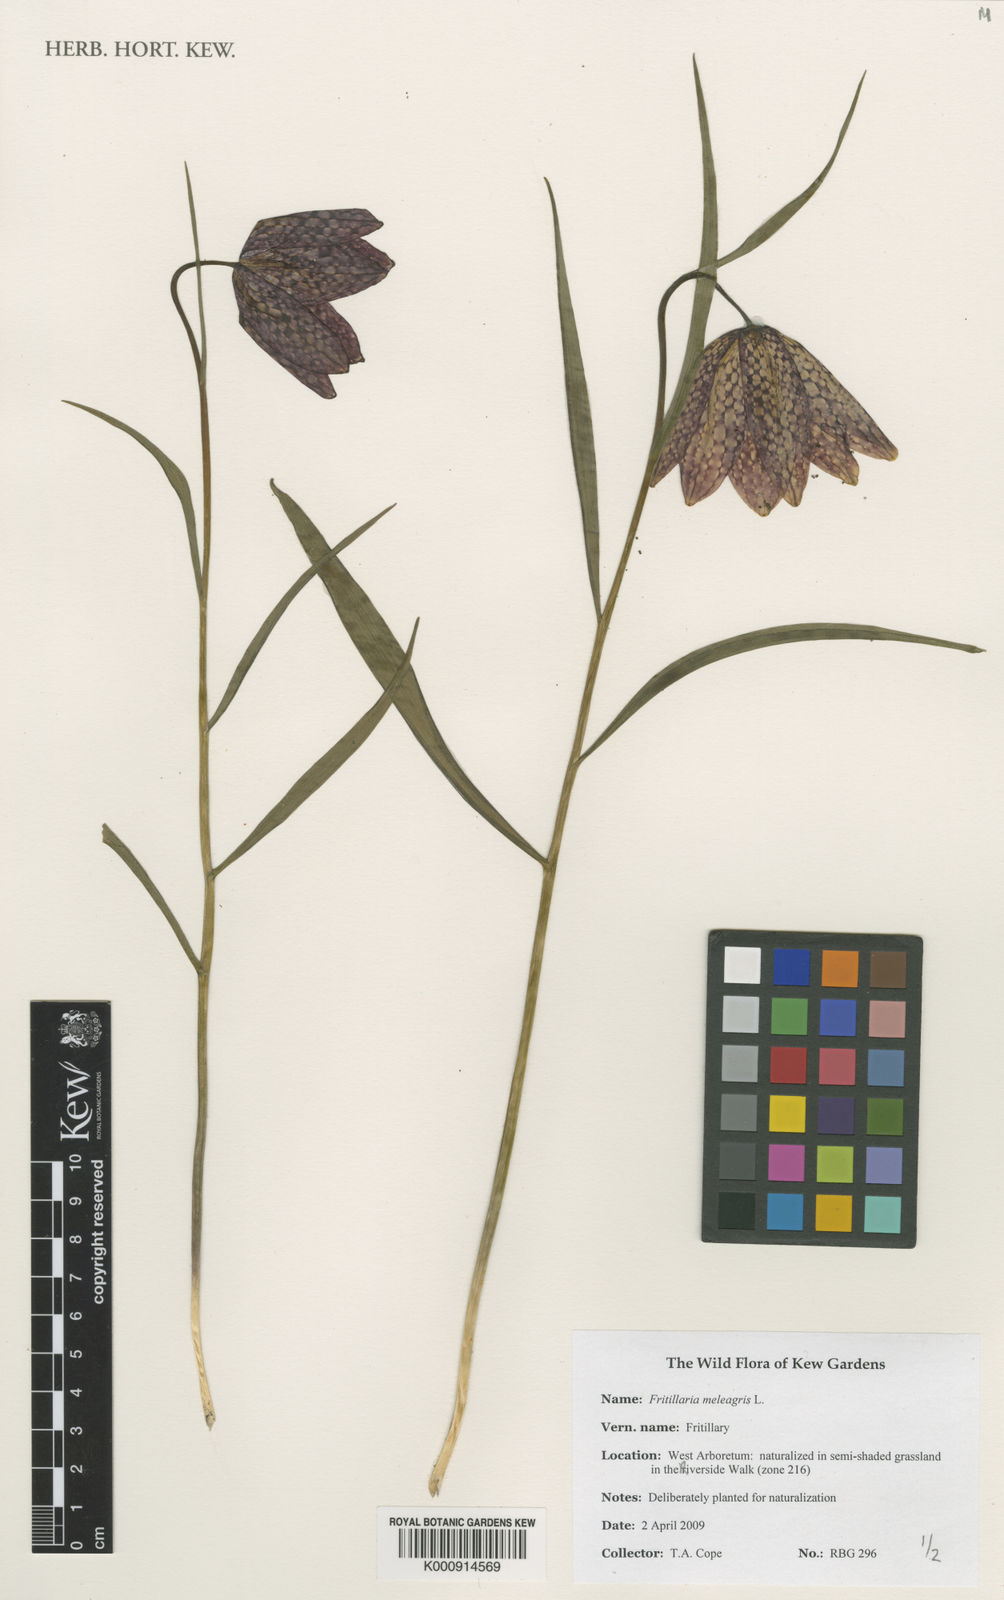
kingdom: Plantae
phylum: Tracheophyta
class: Liliopsida
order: Liliales
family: Liliaceae
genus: Fritillaria
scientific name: Fritillaria meleagris
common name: Fritillary
